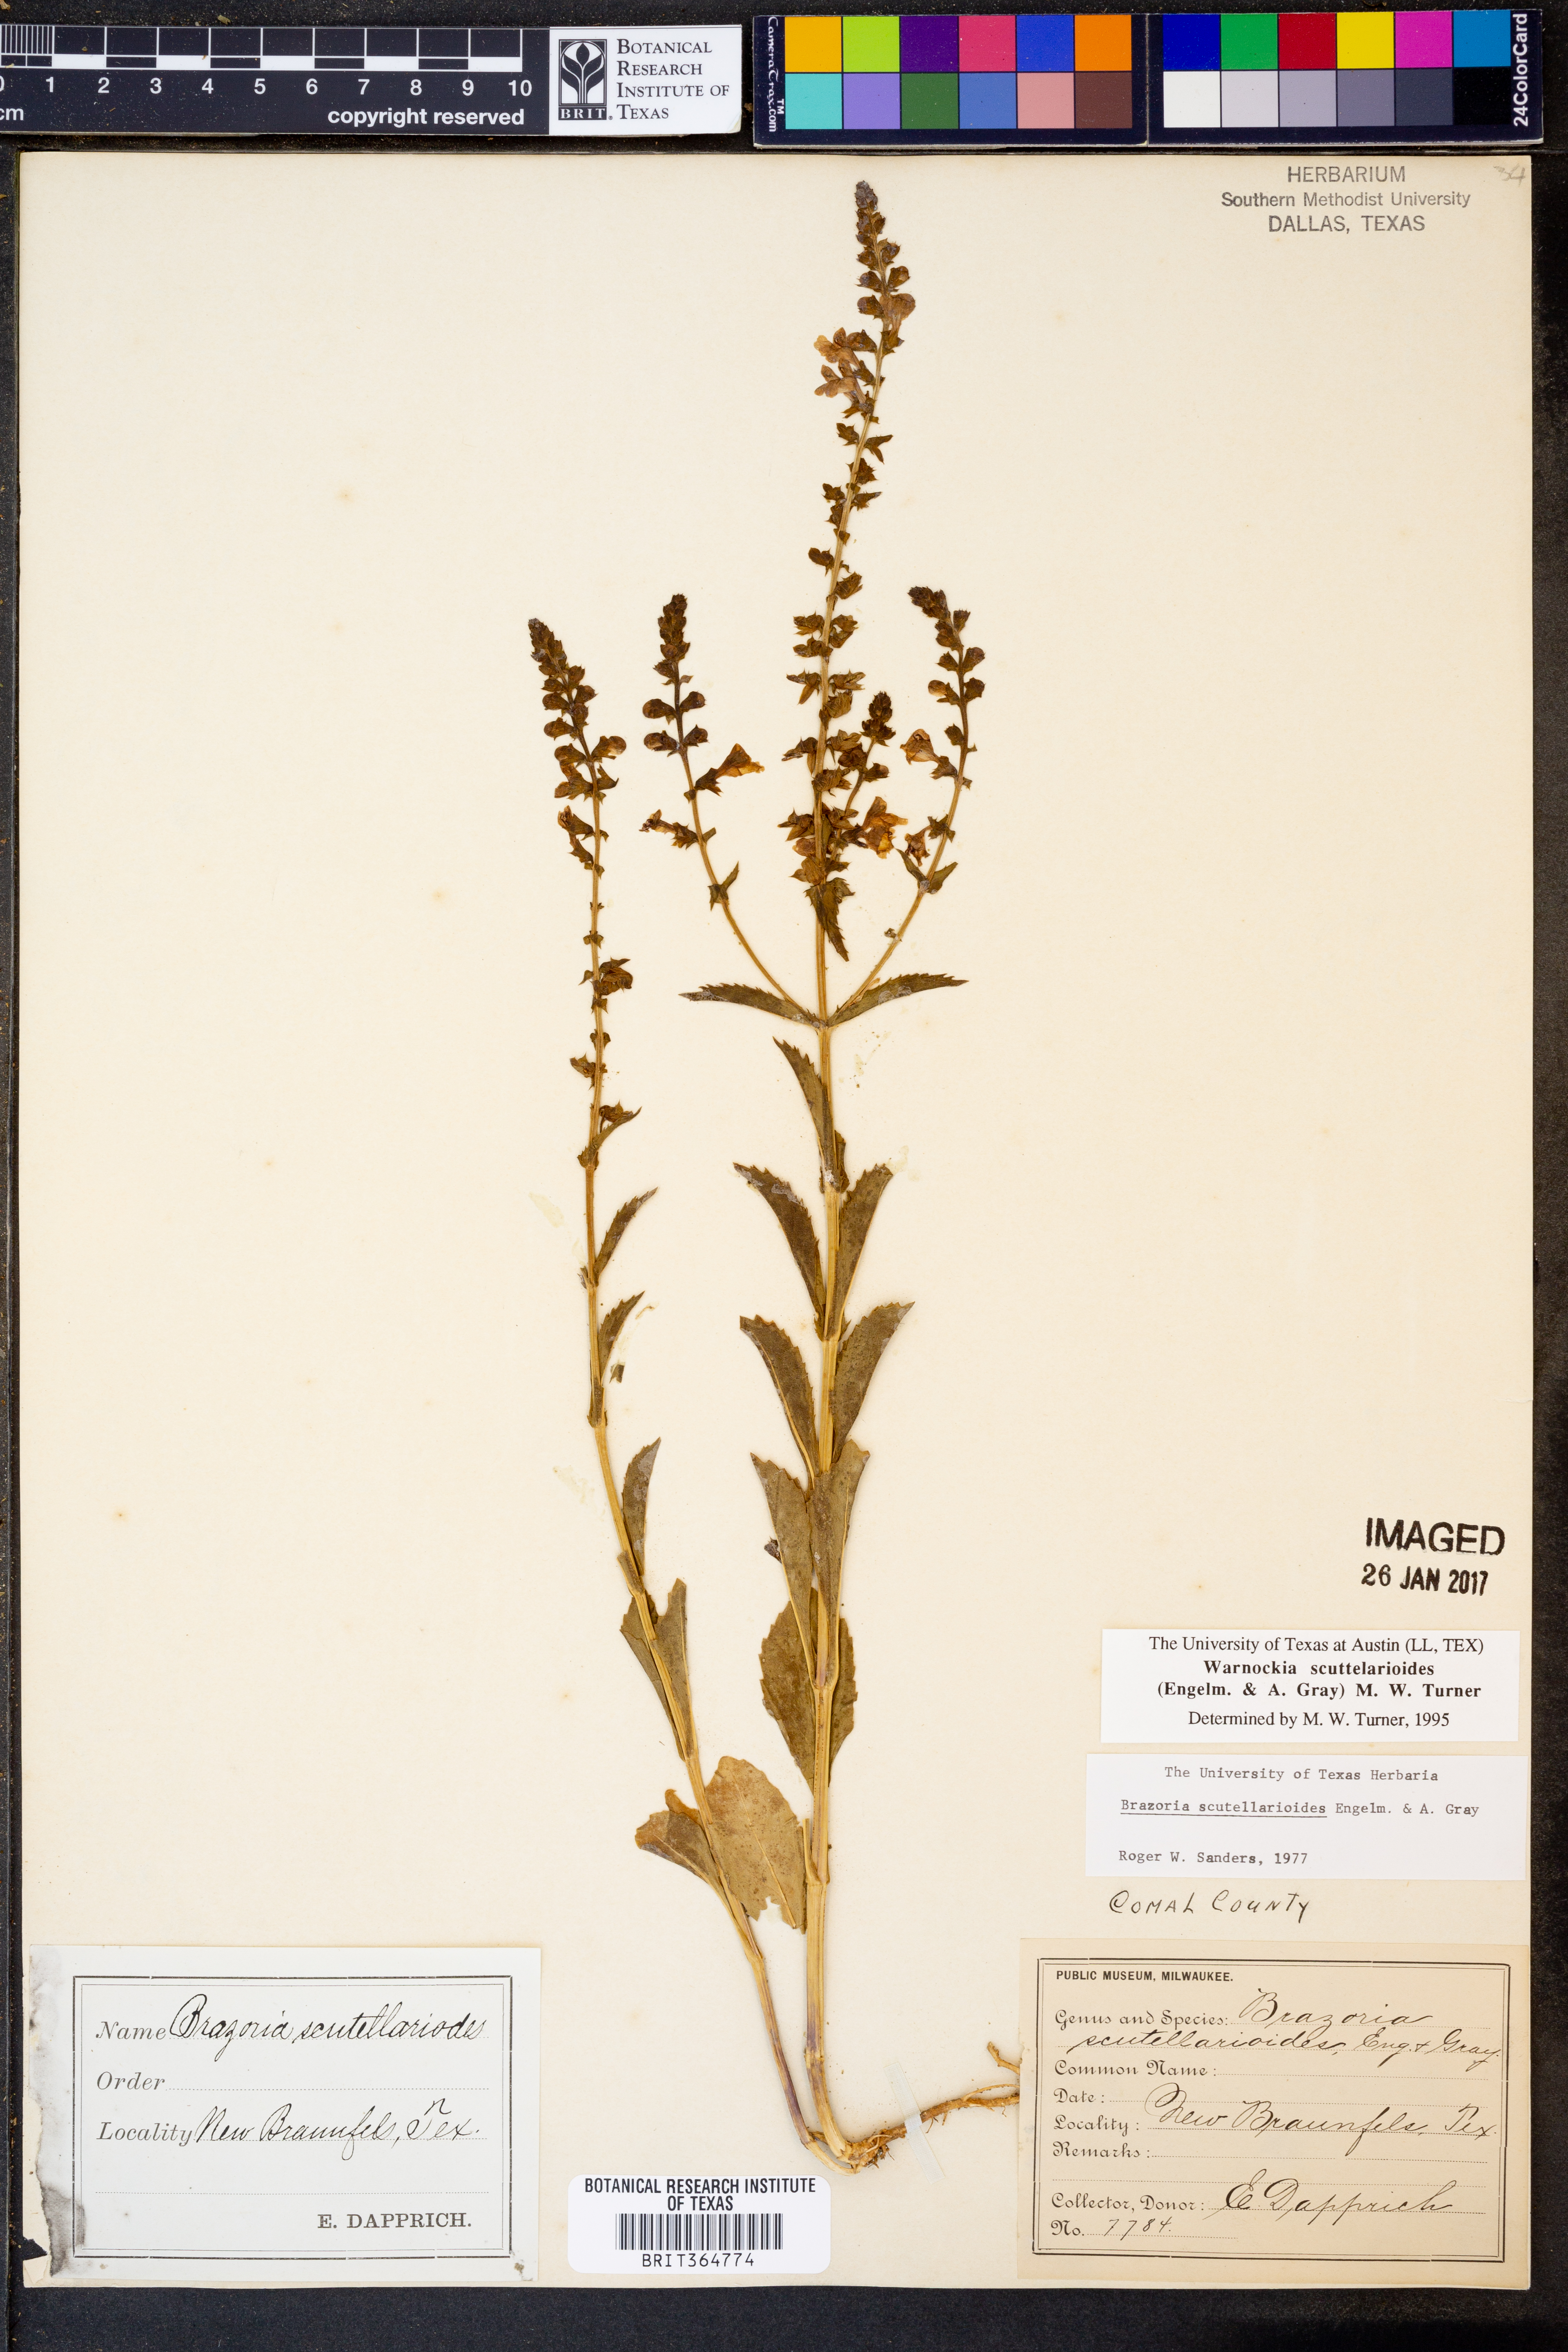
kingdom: Plantae
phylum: Tracheophyta
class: Magnoliopsida
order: Lamiales
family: Lamiaceae
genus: Warnockia
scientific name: Warnockia scutellarioides
